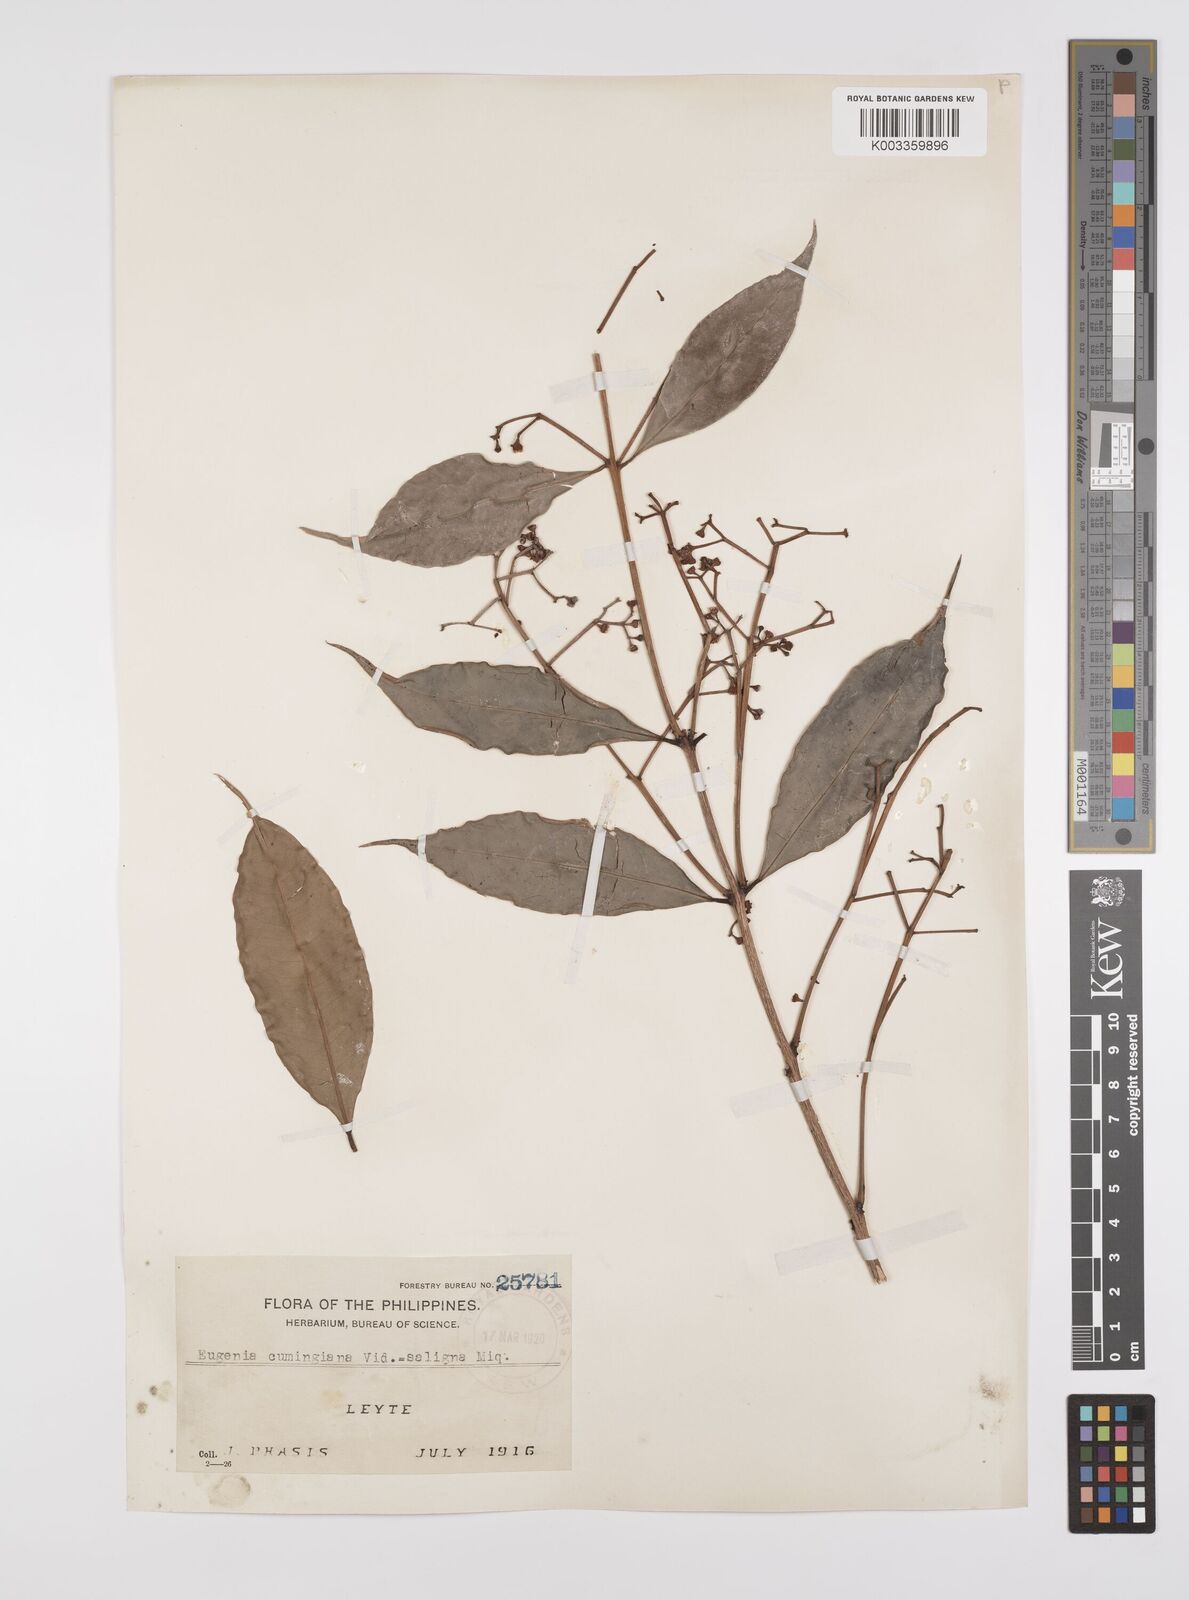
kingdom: Plantae
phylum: Tracheophyta
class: Magnoliopsida
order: Myrtales
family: Myrtaceae
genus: Syzygium
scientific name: Syzygium acuminatissimum
